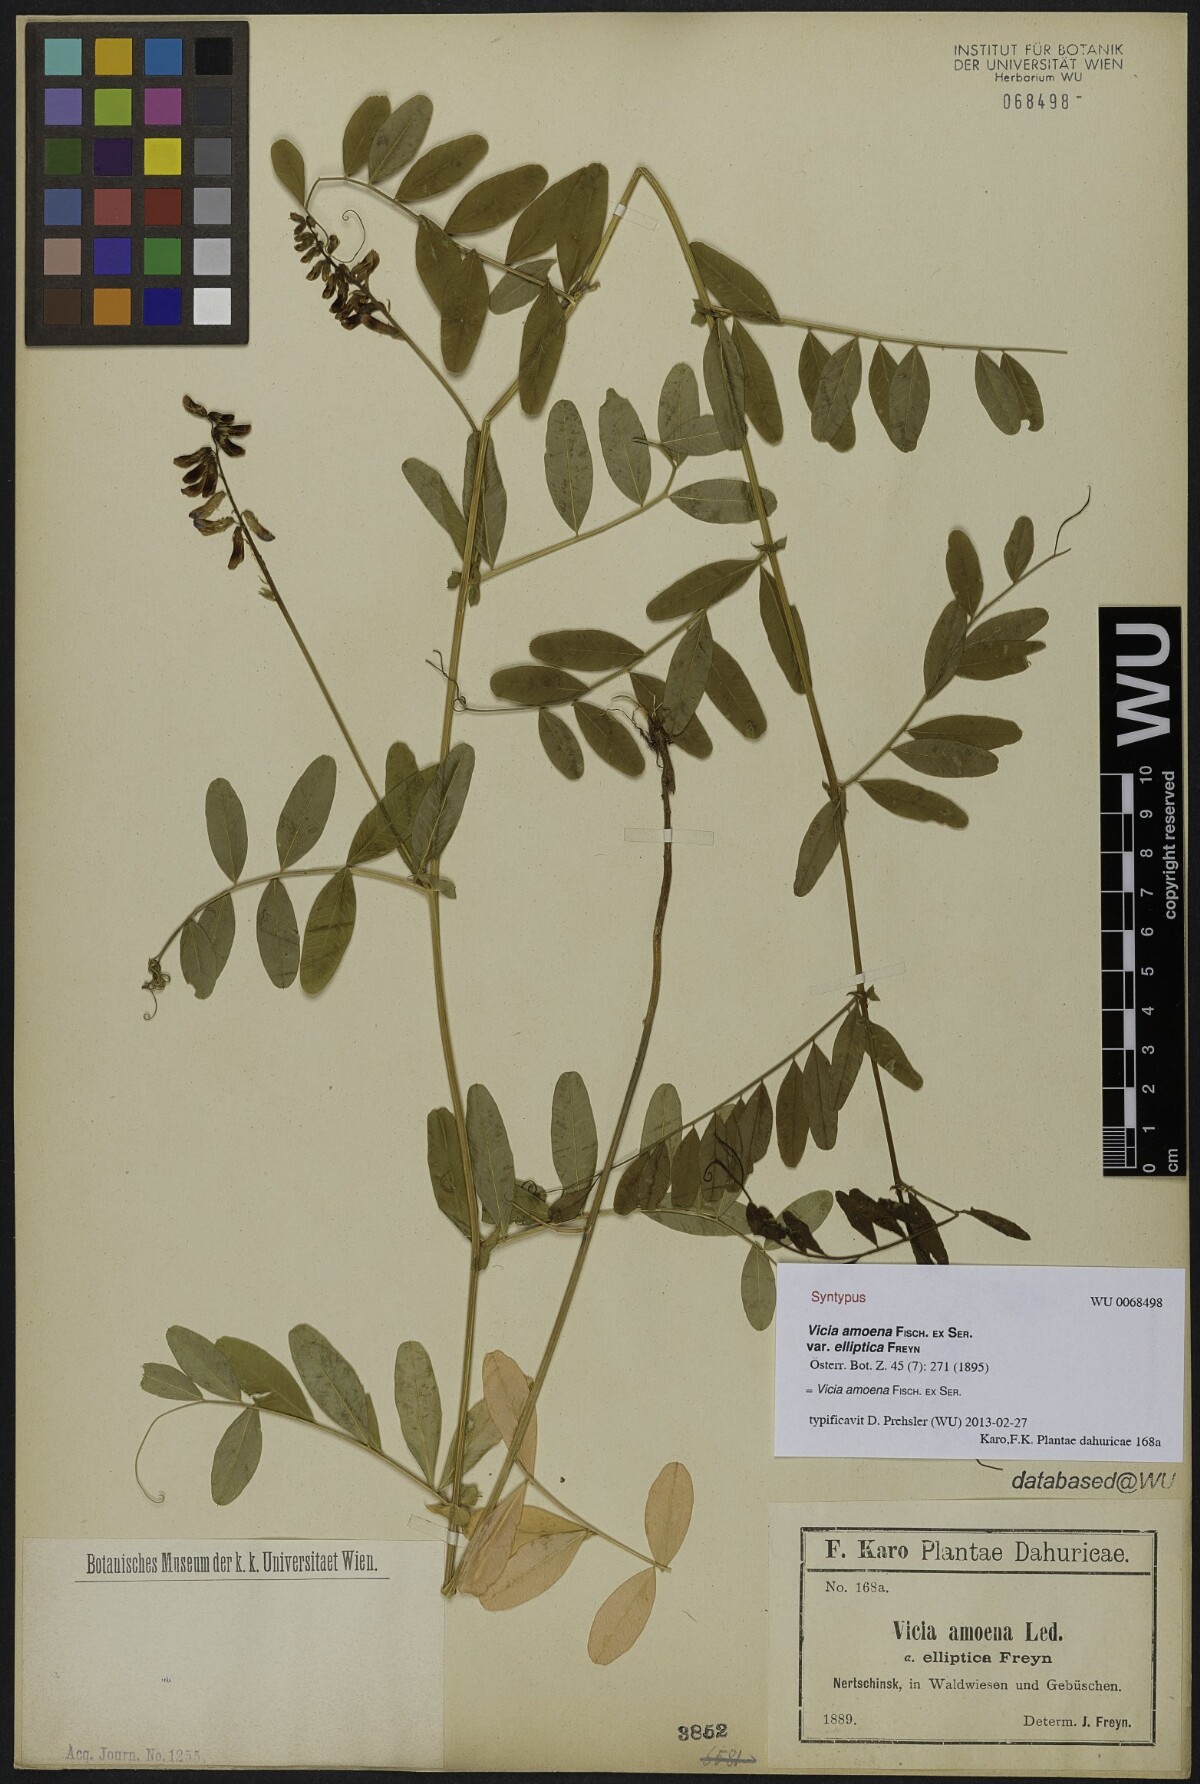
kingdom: Plantae
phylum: Tracheophyta
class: Magnoliopsida
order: Fabales
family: Fabaceae
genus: Vicia
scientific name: Vicia amoena
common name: Cheder ebs
